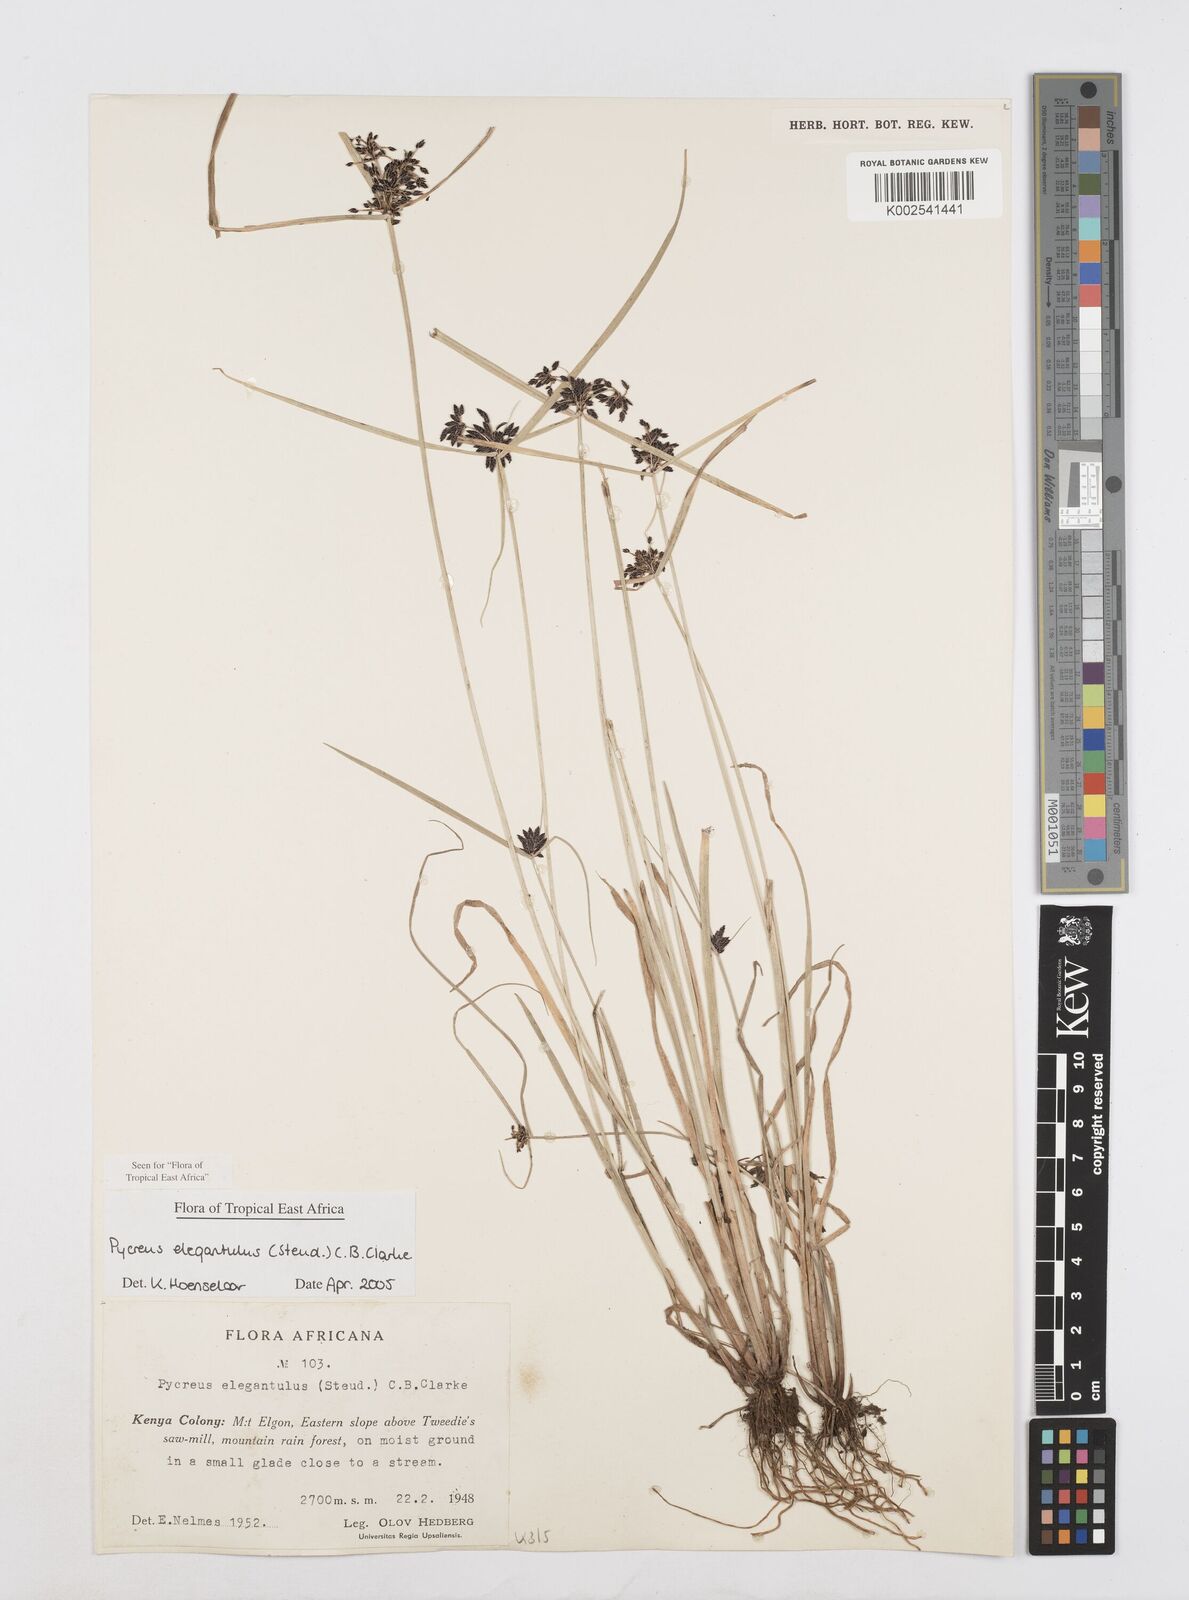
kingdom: Plantae
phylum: Tracheophyta
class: Liliopsida
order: Poales
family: Cyperaceae
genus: Cyperus
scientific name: Cyperus elegantulus
